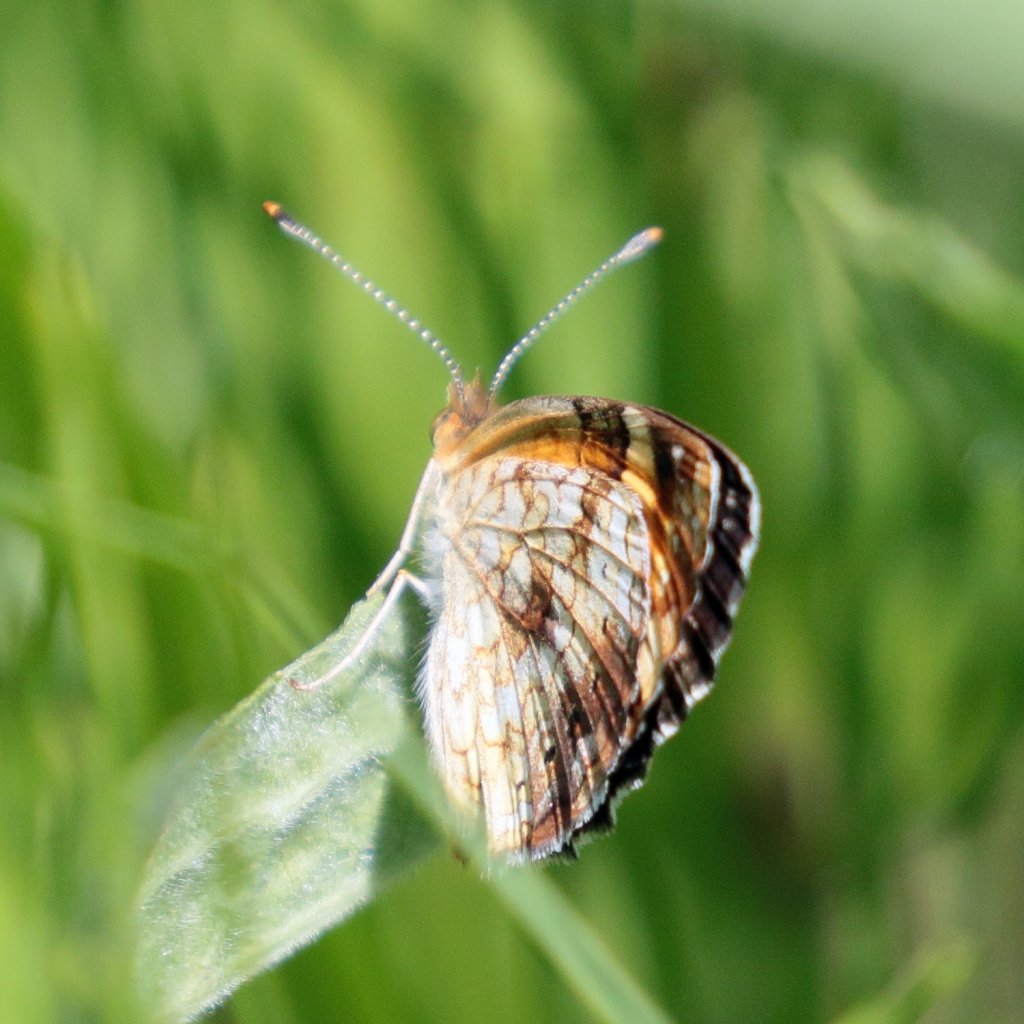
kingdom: Animalia
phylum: Arthropoda
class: Insecta
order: Lepidoptera
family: Nymphalidae
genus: Phyciodes
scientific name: Phyciodes tharos
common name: Northern Crescent
